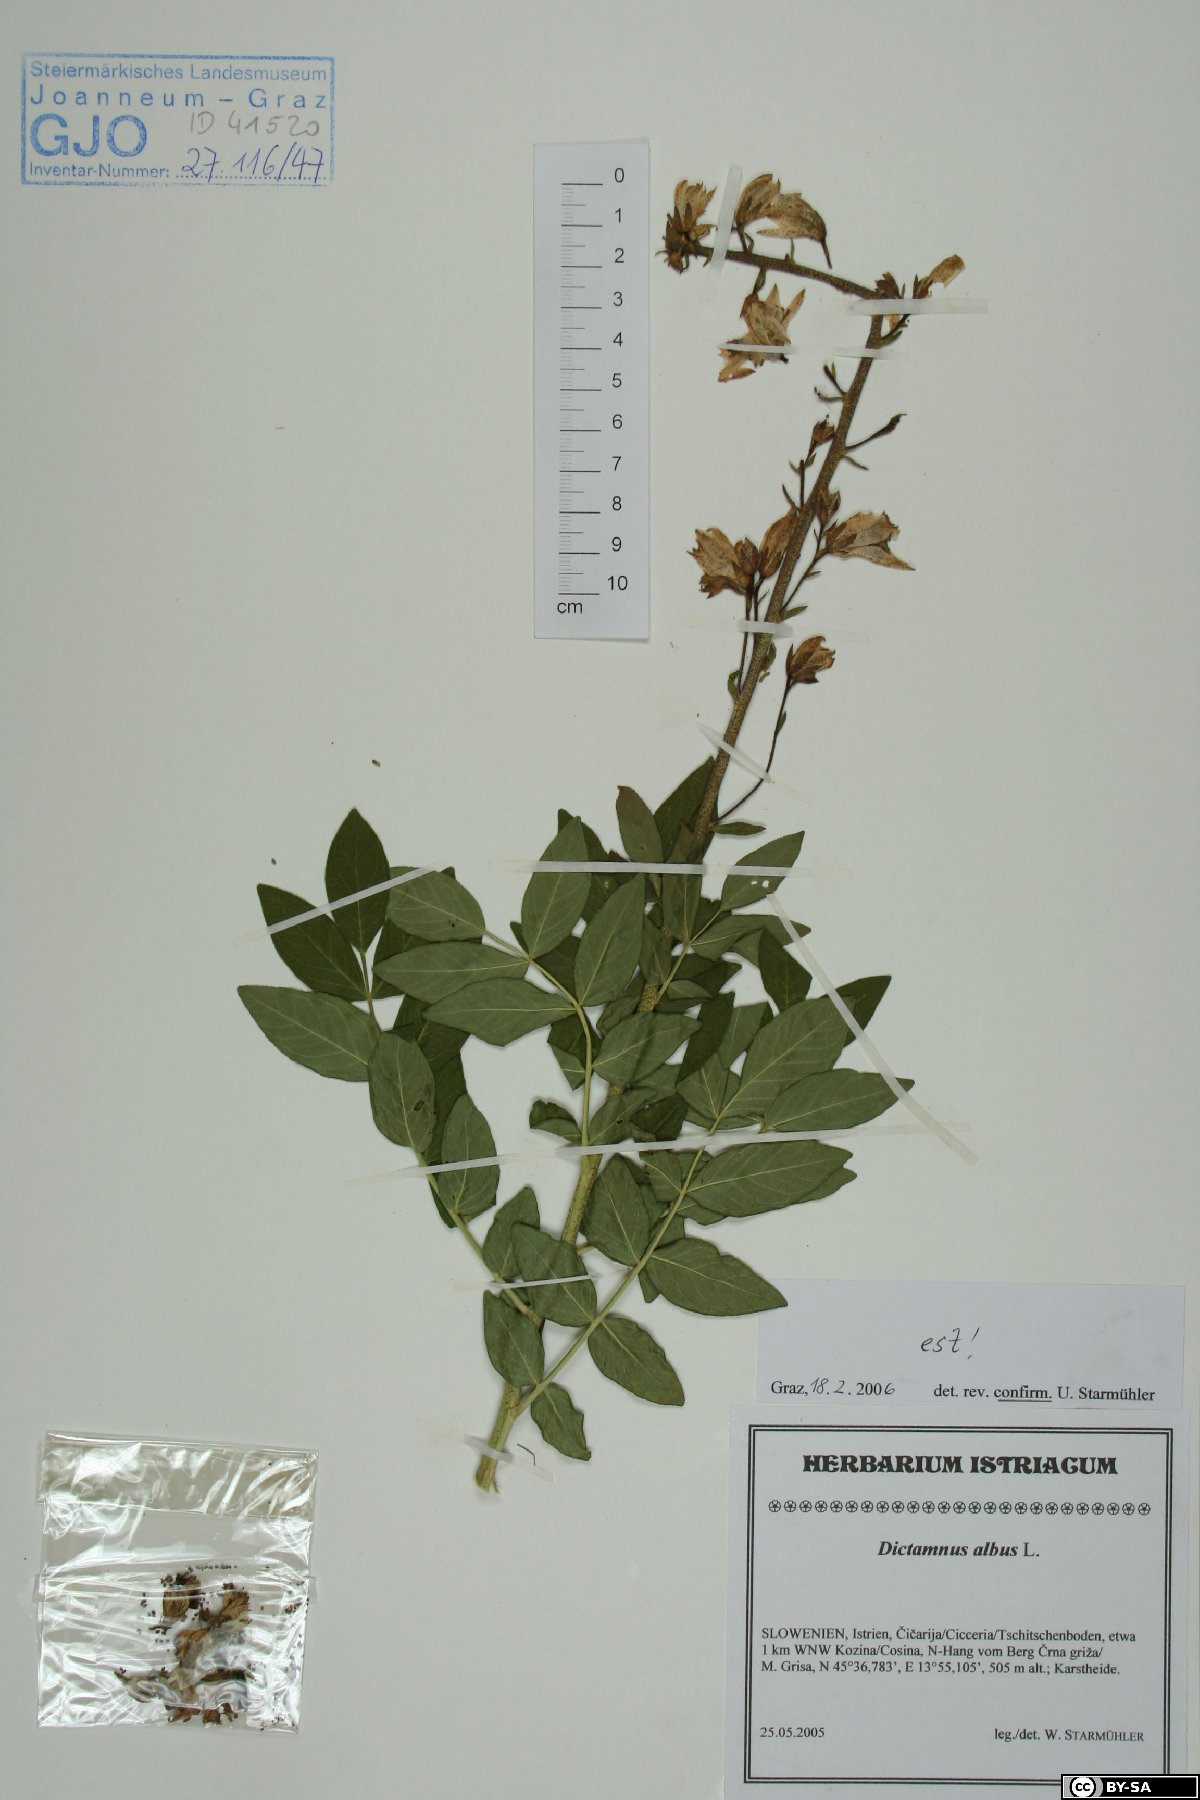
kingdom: Plantae
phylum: Tracheophyta
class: Magnoliopsida
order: Sapindales
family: Rutaceae
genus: Dictamnus
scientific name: Dictamnus albus
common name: Gasplant
